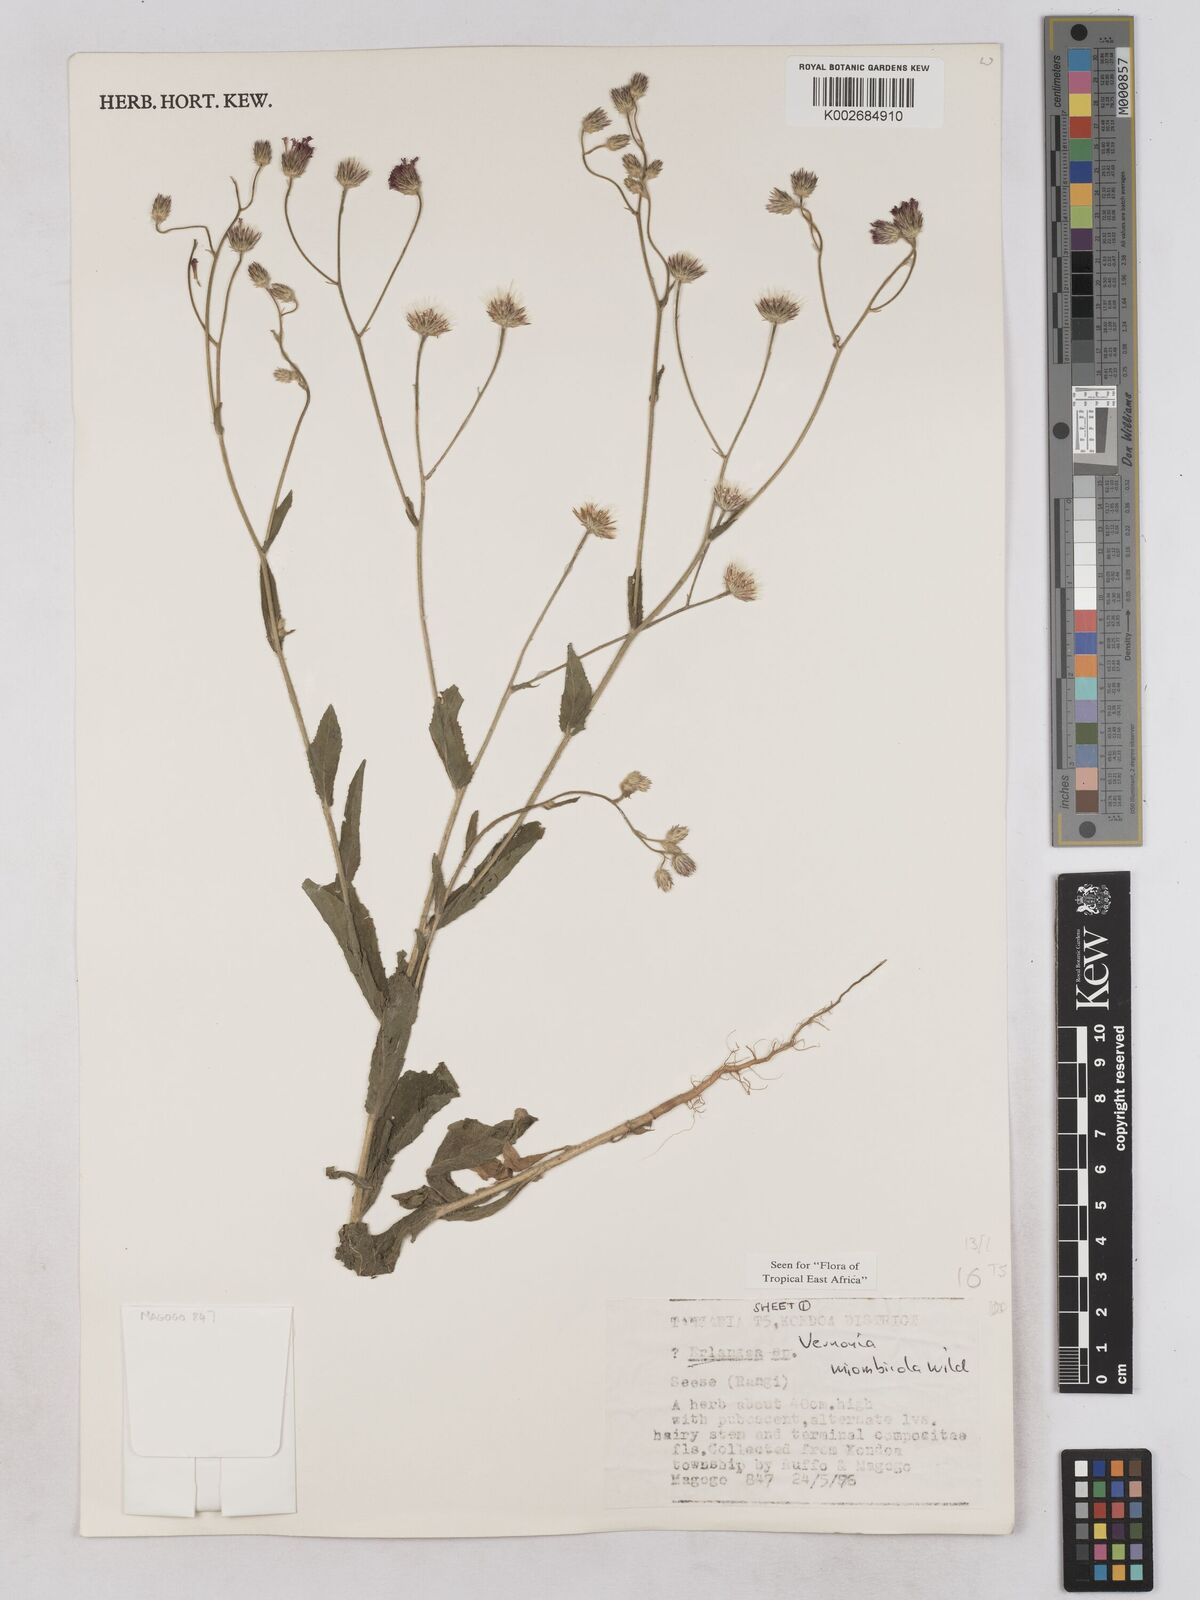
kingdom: Plantae
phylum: Tracheophyta
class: Magnoliopsida
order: Asterales
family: Asteraceae
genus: Vernonia
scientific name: Vernonia miombicola
